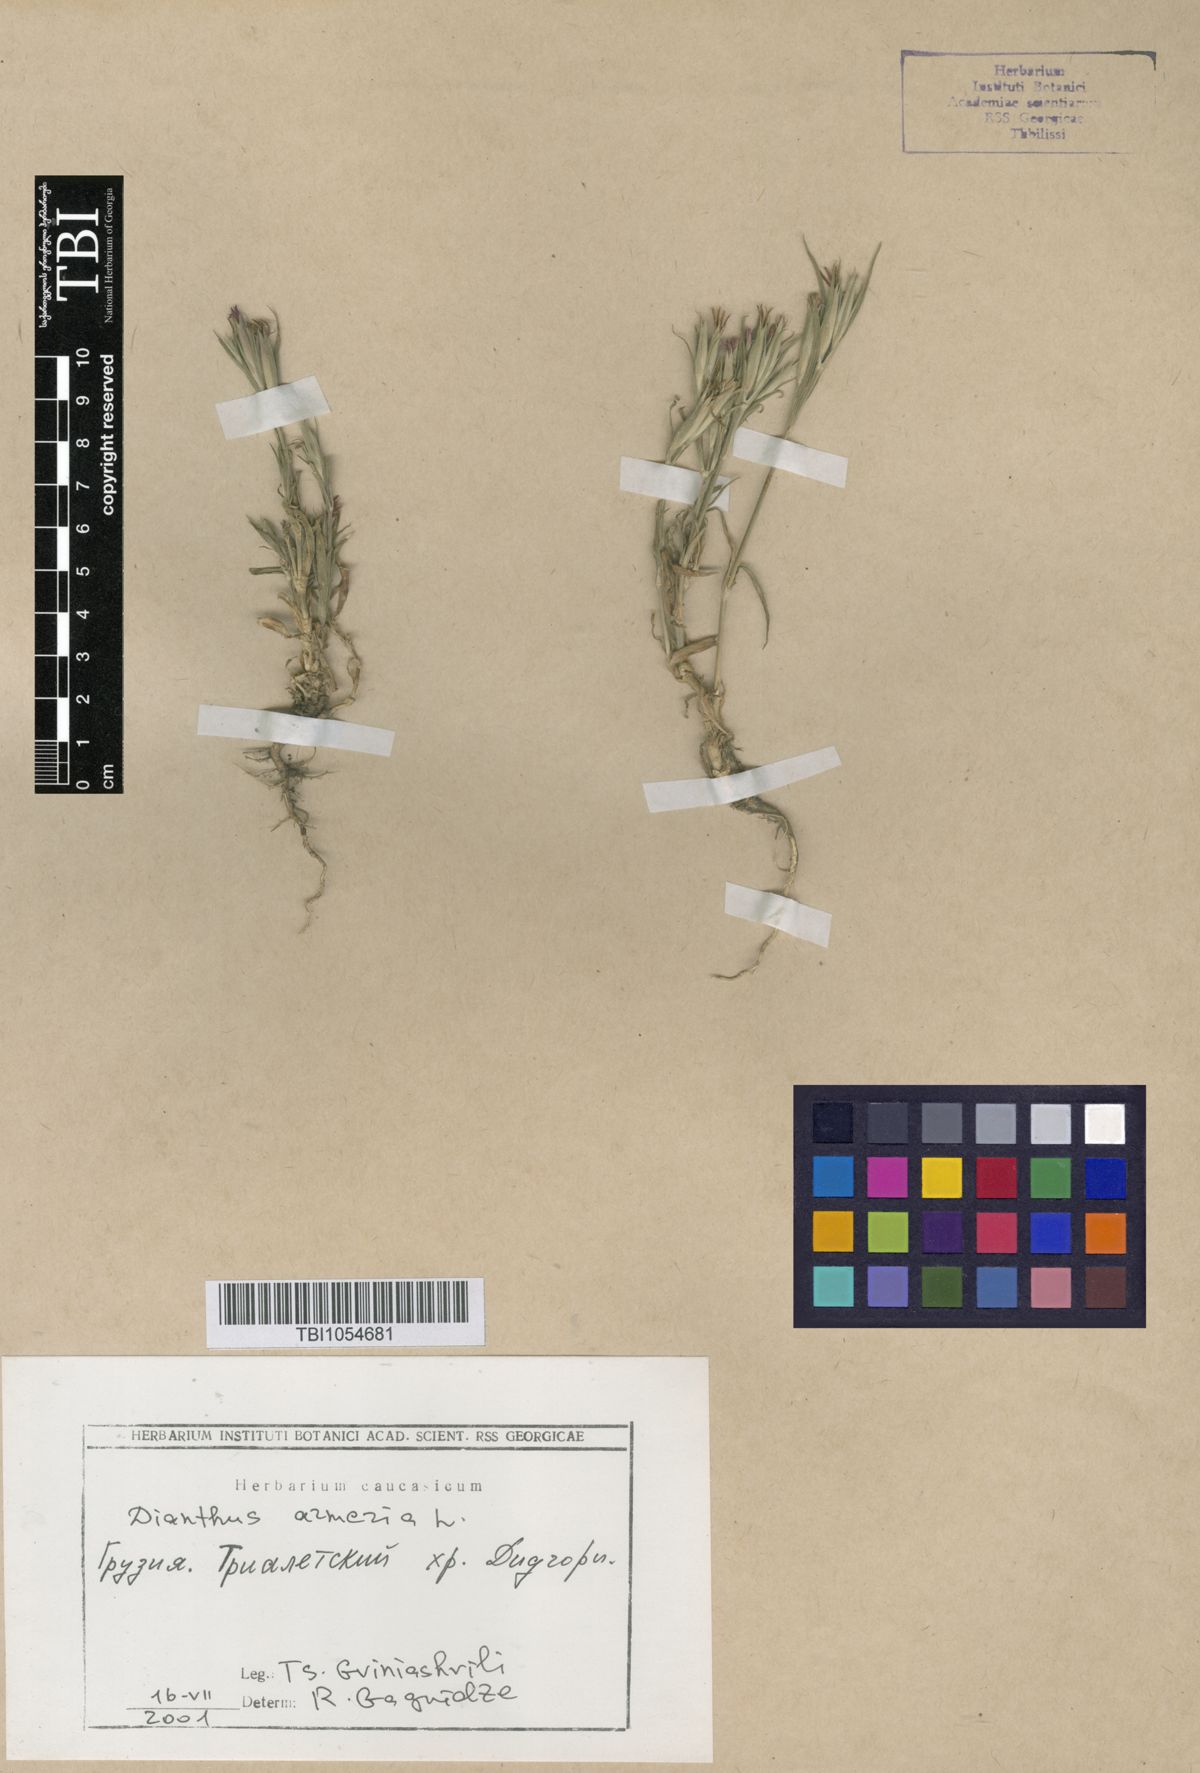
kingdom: Plantae
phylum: Tracheophyta
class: Magnoliopsida
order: Caryophyllales
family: Caryophyllaceae
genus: Dianthus
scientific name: Dianthus armeria
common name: Deptford pink
